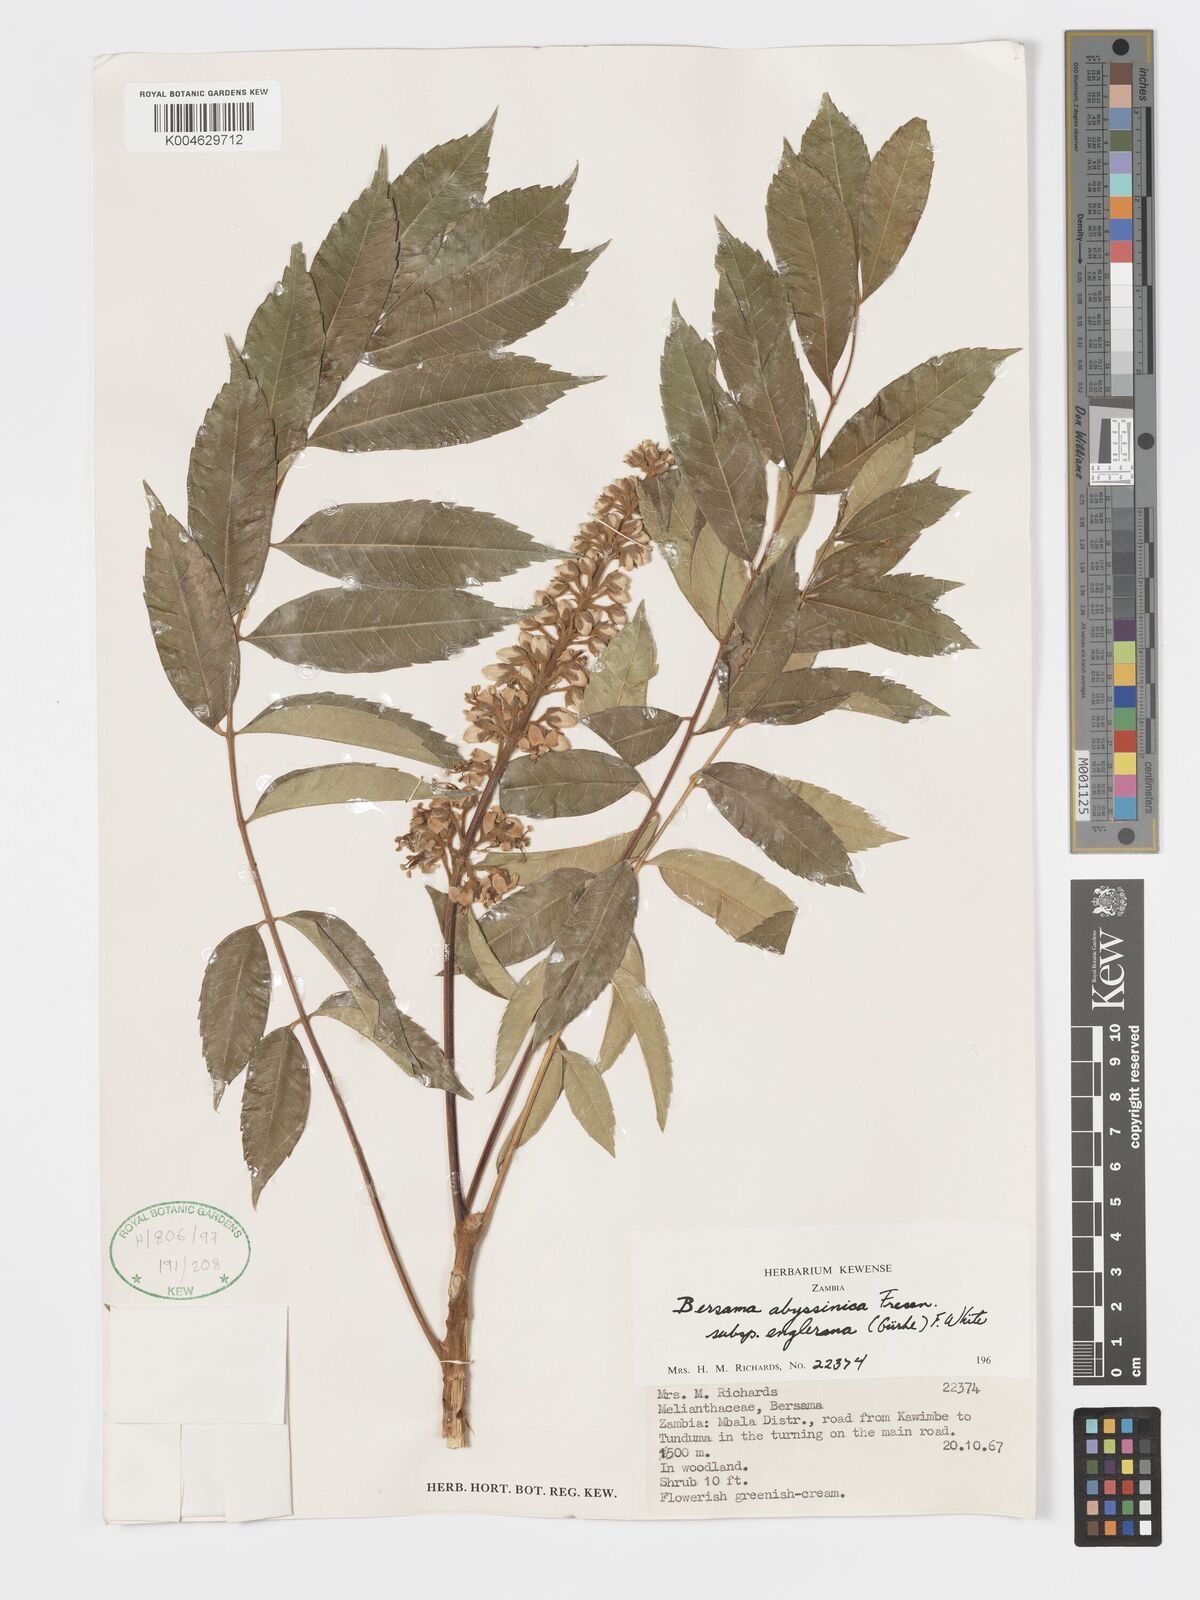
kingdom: Plantae
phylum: Tracheophyta
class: Magnoliopsida
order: Geraniales
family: Melianthaceae
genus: Bersama
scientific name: Bersama abyssinica
